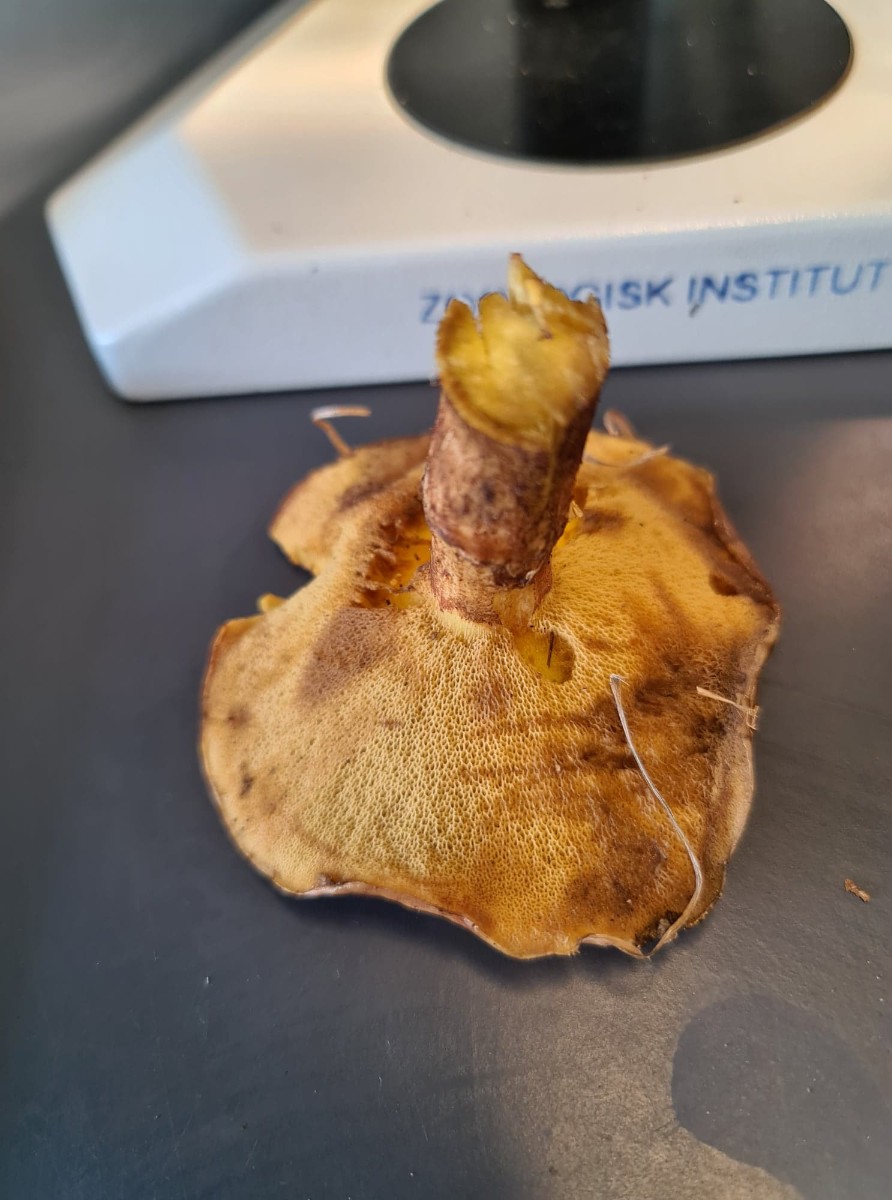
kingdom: Fungi
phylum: Basidiomycota
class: Agaricomycetes
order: Boletales
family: Suillaceae
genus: Suillus
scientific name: Suillus grevillei
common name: lærke-slimrørhat
